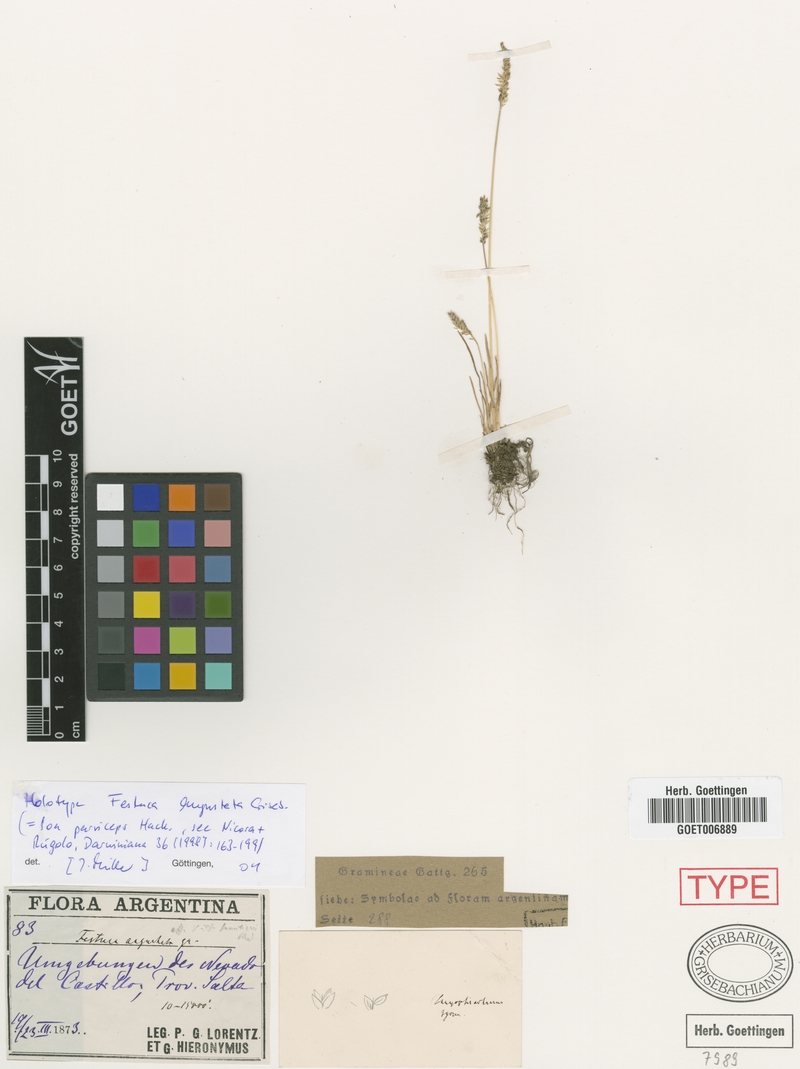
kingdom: Plantae
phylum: Tracheophyta
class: Liliopsida
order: Poales
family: Poaceae
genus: Poa
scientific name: Poa scaberula
